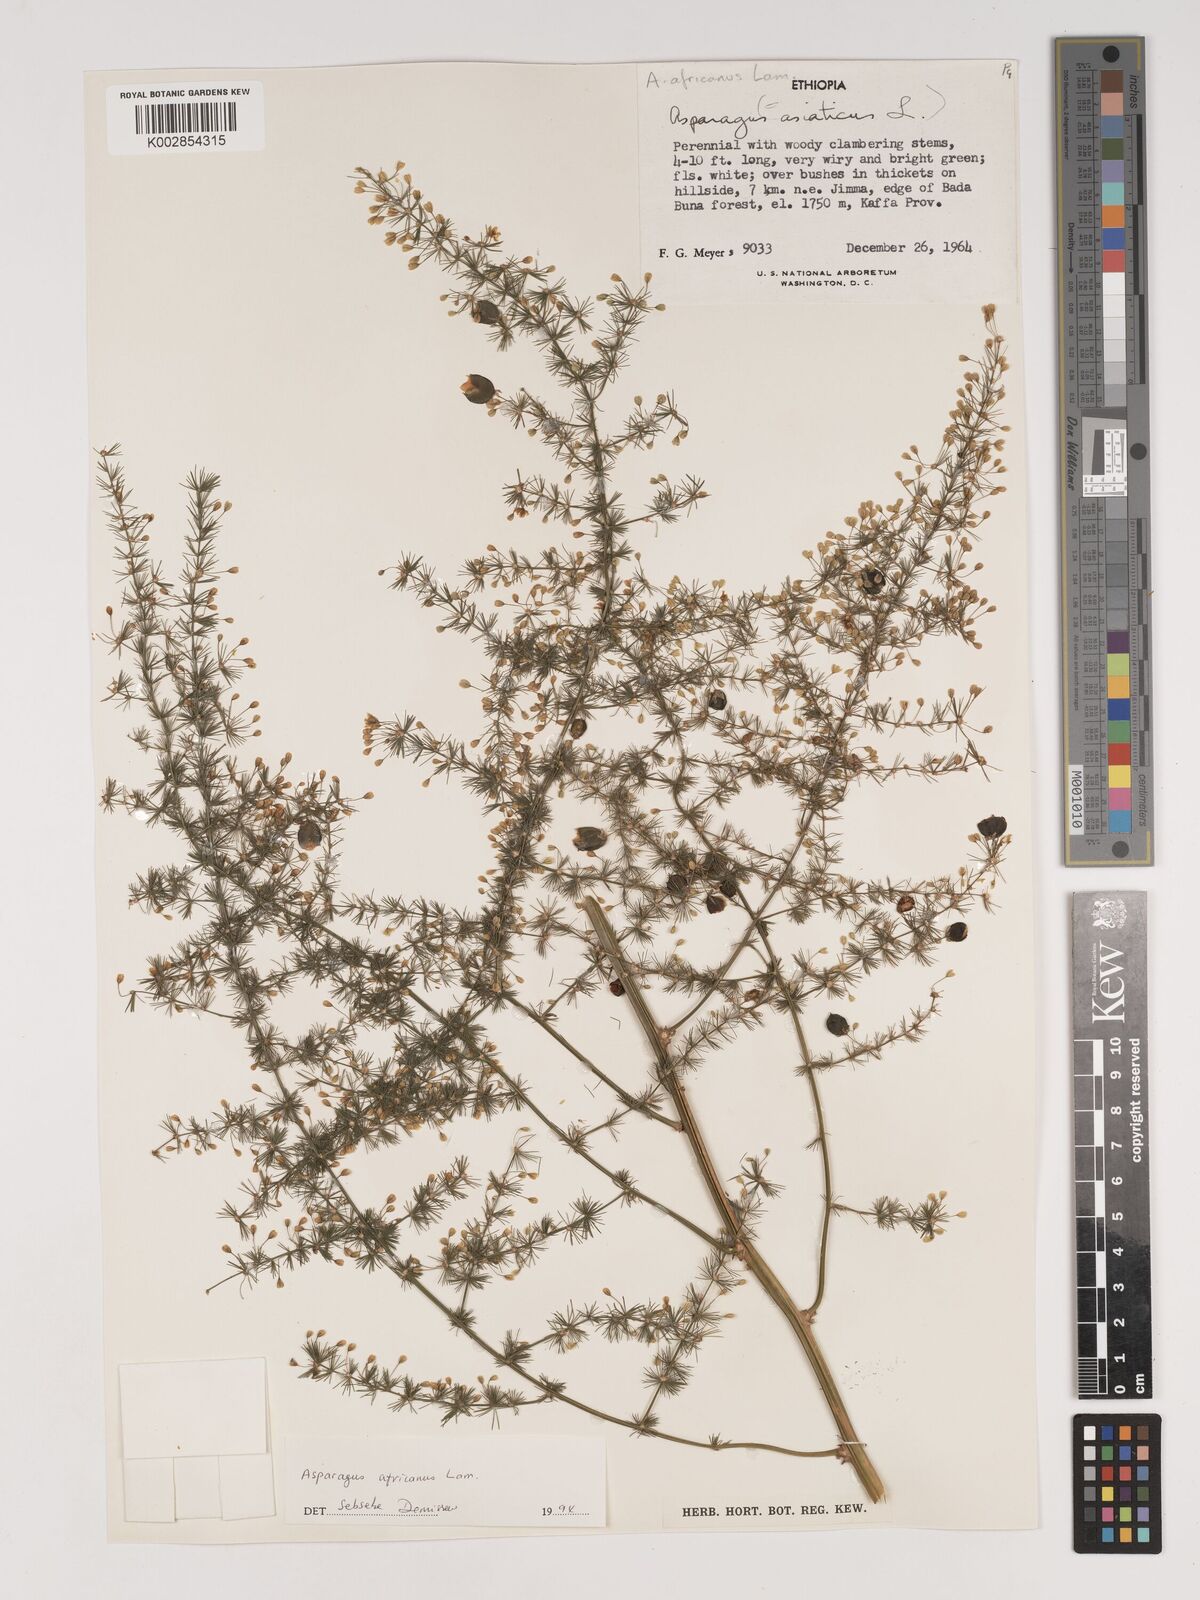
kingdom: Plantae
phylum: Tracheophyta
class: Liliopsida
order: Asparagales
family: Asparagaceae
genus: Asparagus
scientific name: Asparagus africanus
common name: Asparagus-fern
